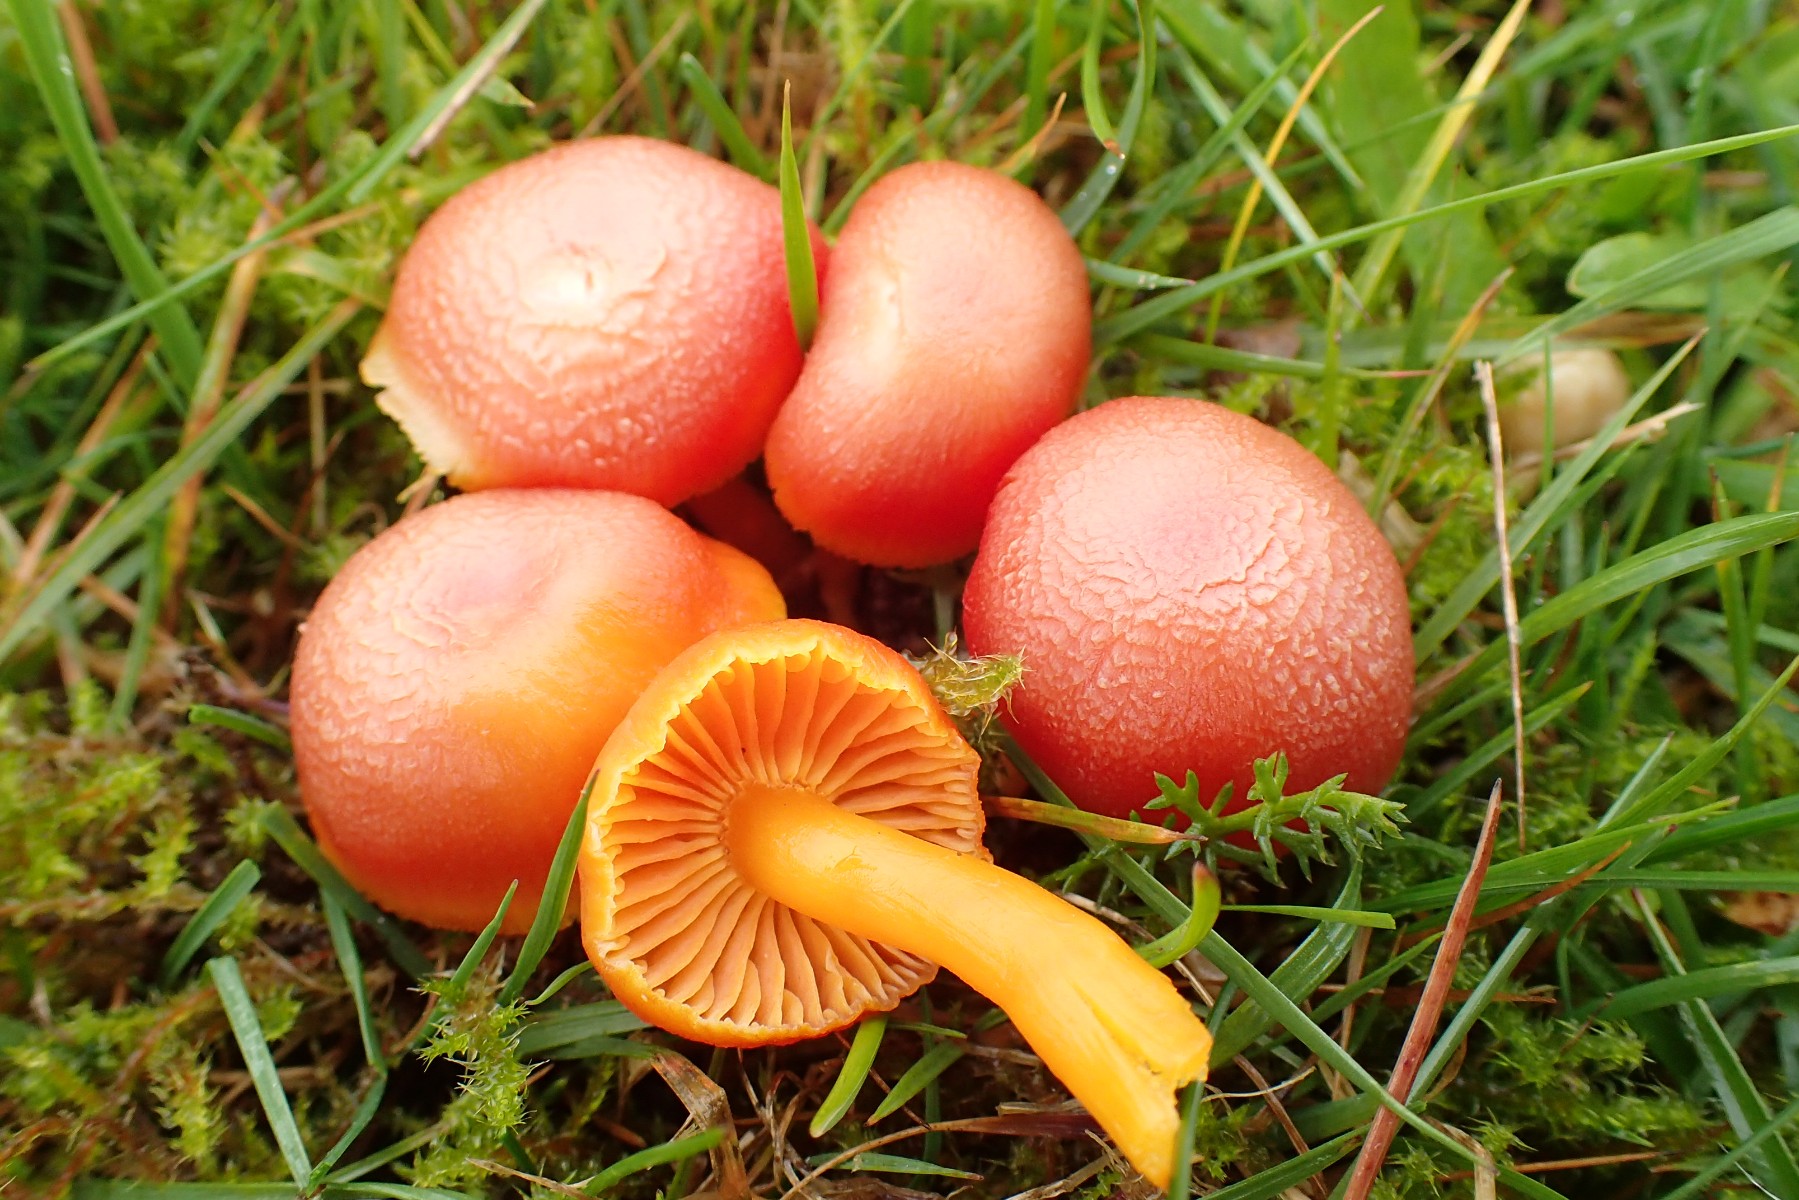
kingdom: Fungi
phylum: Basidiomycota
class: Agaricomycetes
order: Agaricales
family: Hygrophoraceae
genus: Hygrocybe
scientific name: Hygrocybe miniata
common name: mønje-vokshat
